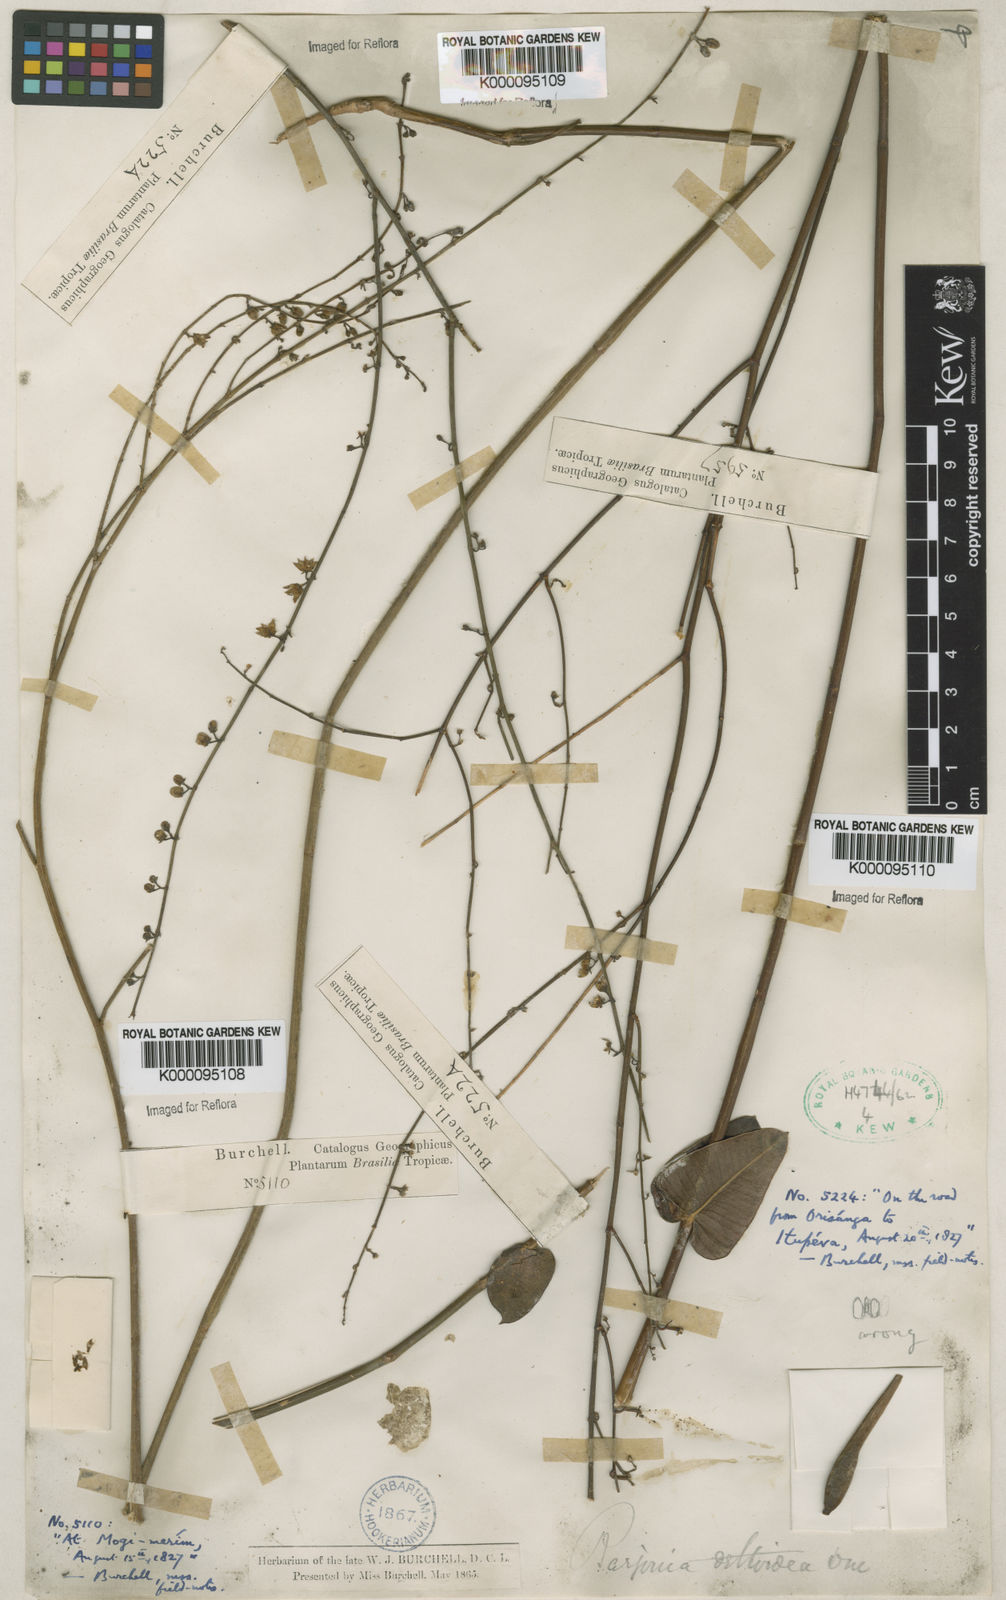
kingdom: Plantae
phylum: Tracheophyta
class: Magnoliopsida
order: Gentianales
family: Apocynaceae
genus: Barjonia
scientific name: Barjonia erecta
